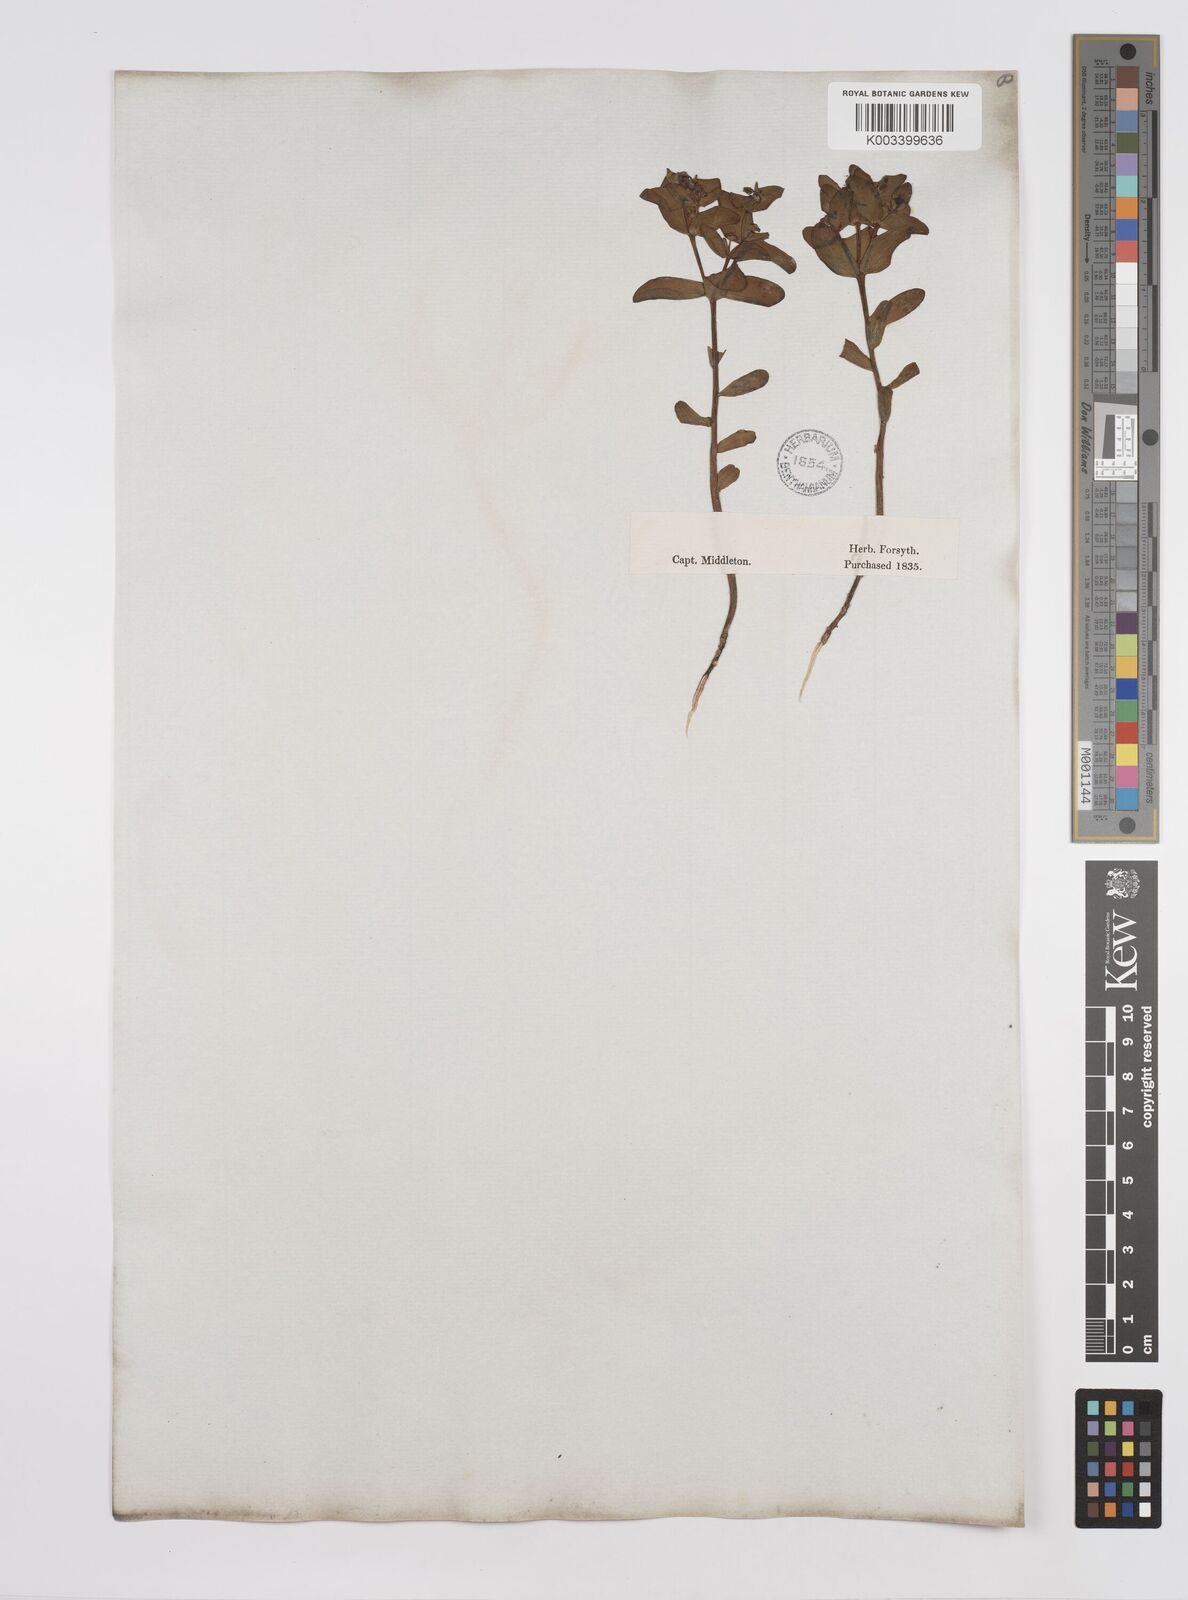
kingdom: Plantae
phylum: Tracheophyta
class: Magnoliopsida
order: Malpighiales
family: Euphorbiaceae
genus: Euphorbia
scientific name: Euphorbia portulacoides
